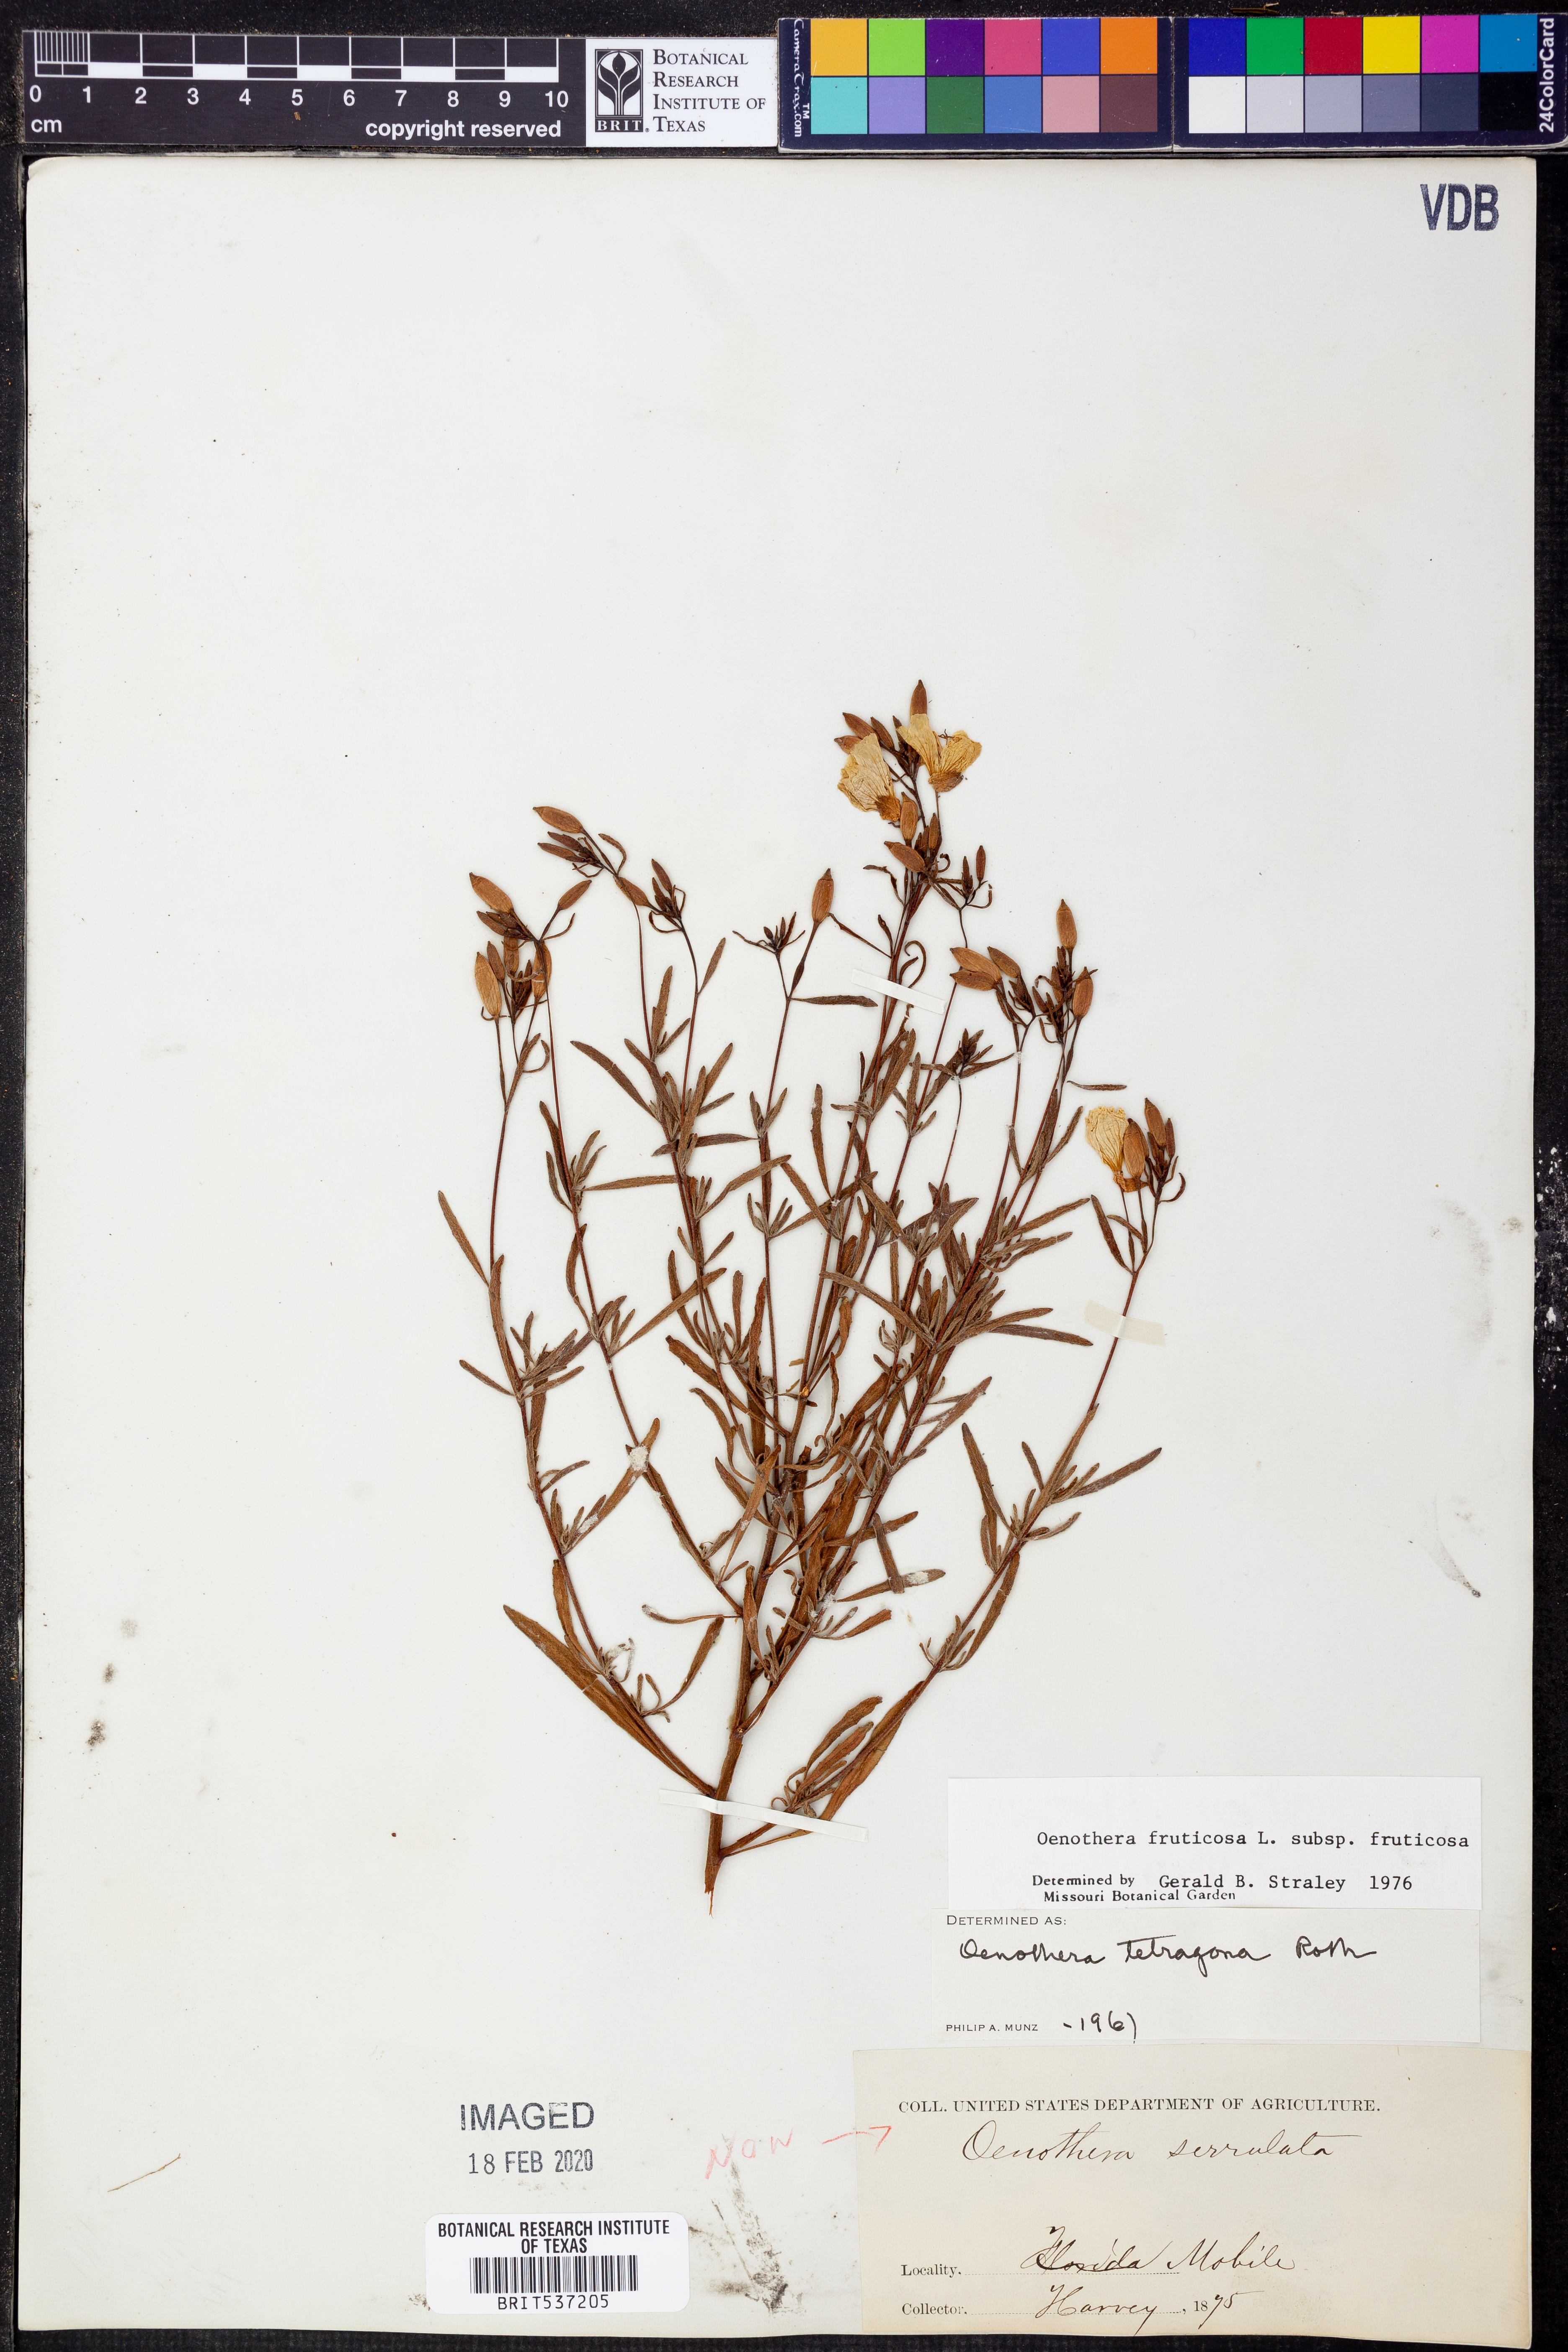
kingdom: Plantae
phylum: Tracheophyta
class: Magnoliopsida
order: Myrtales
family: Onagraceae
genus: Oenothera
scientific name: Oenothera fruticosa
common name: Southern sundrops
